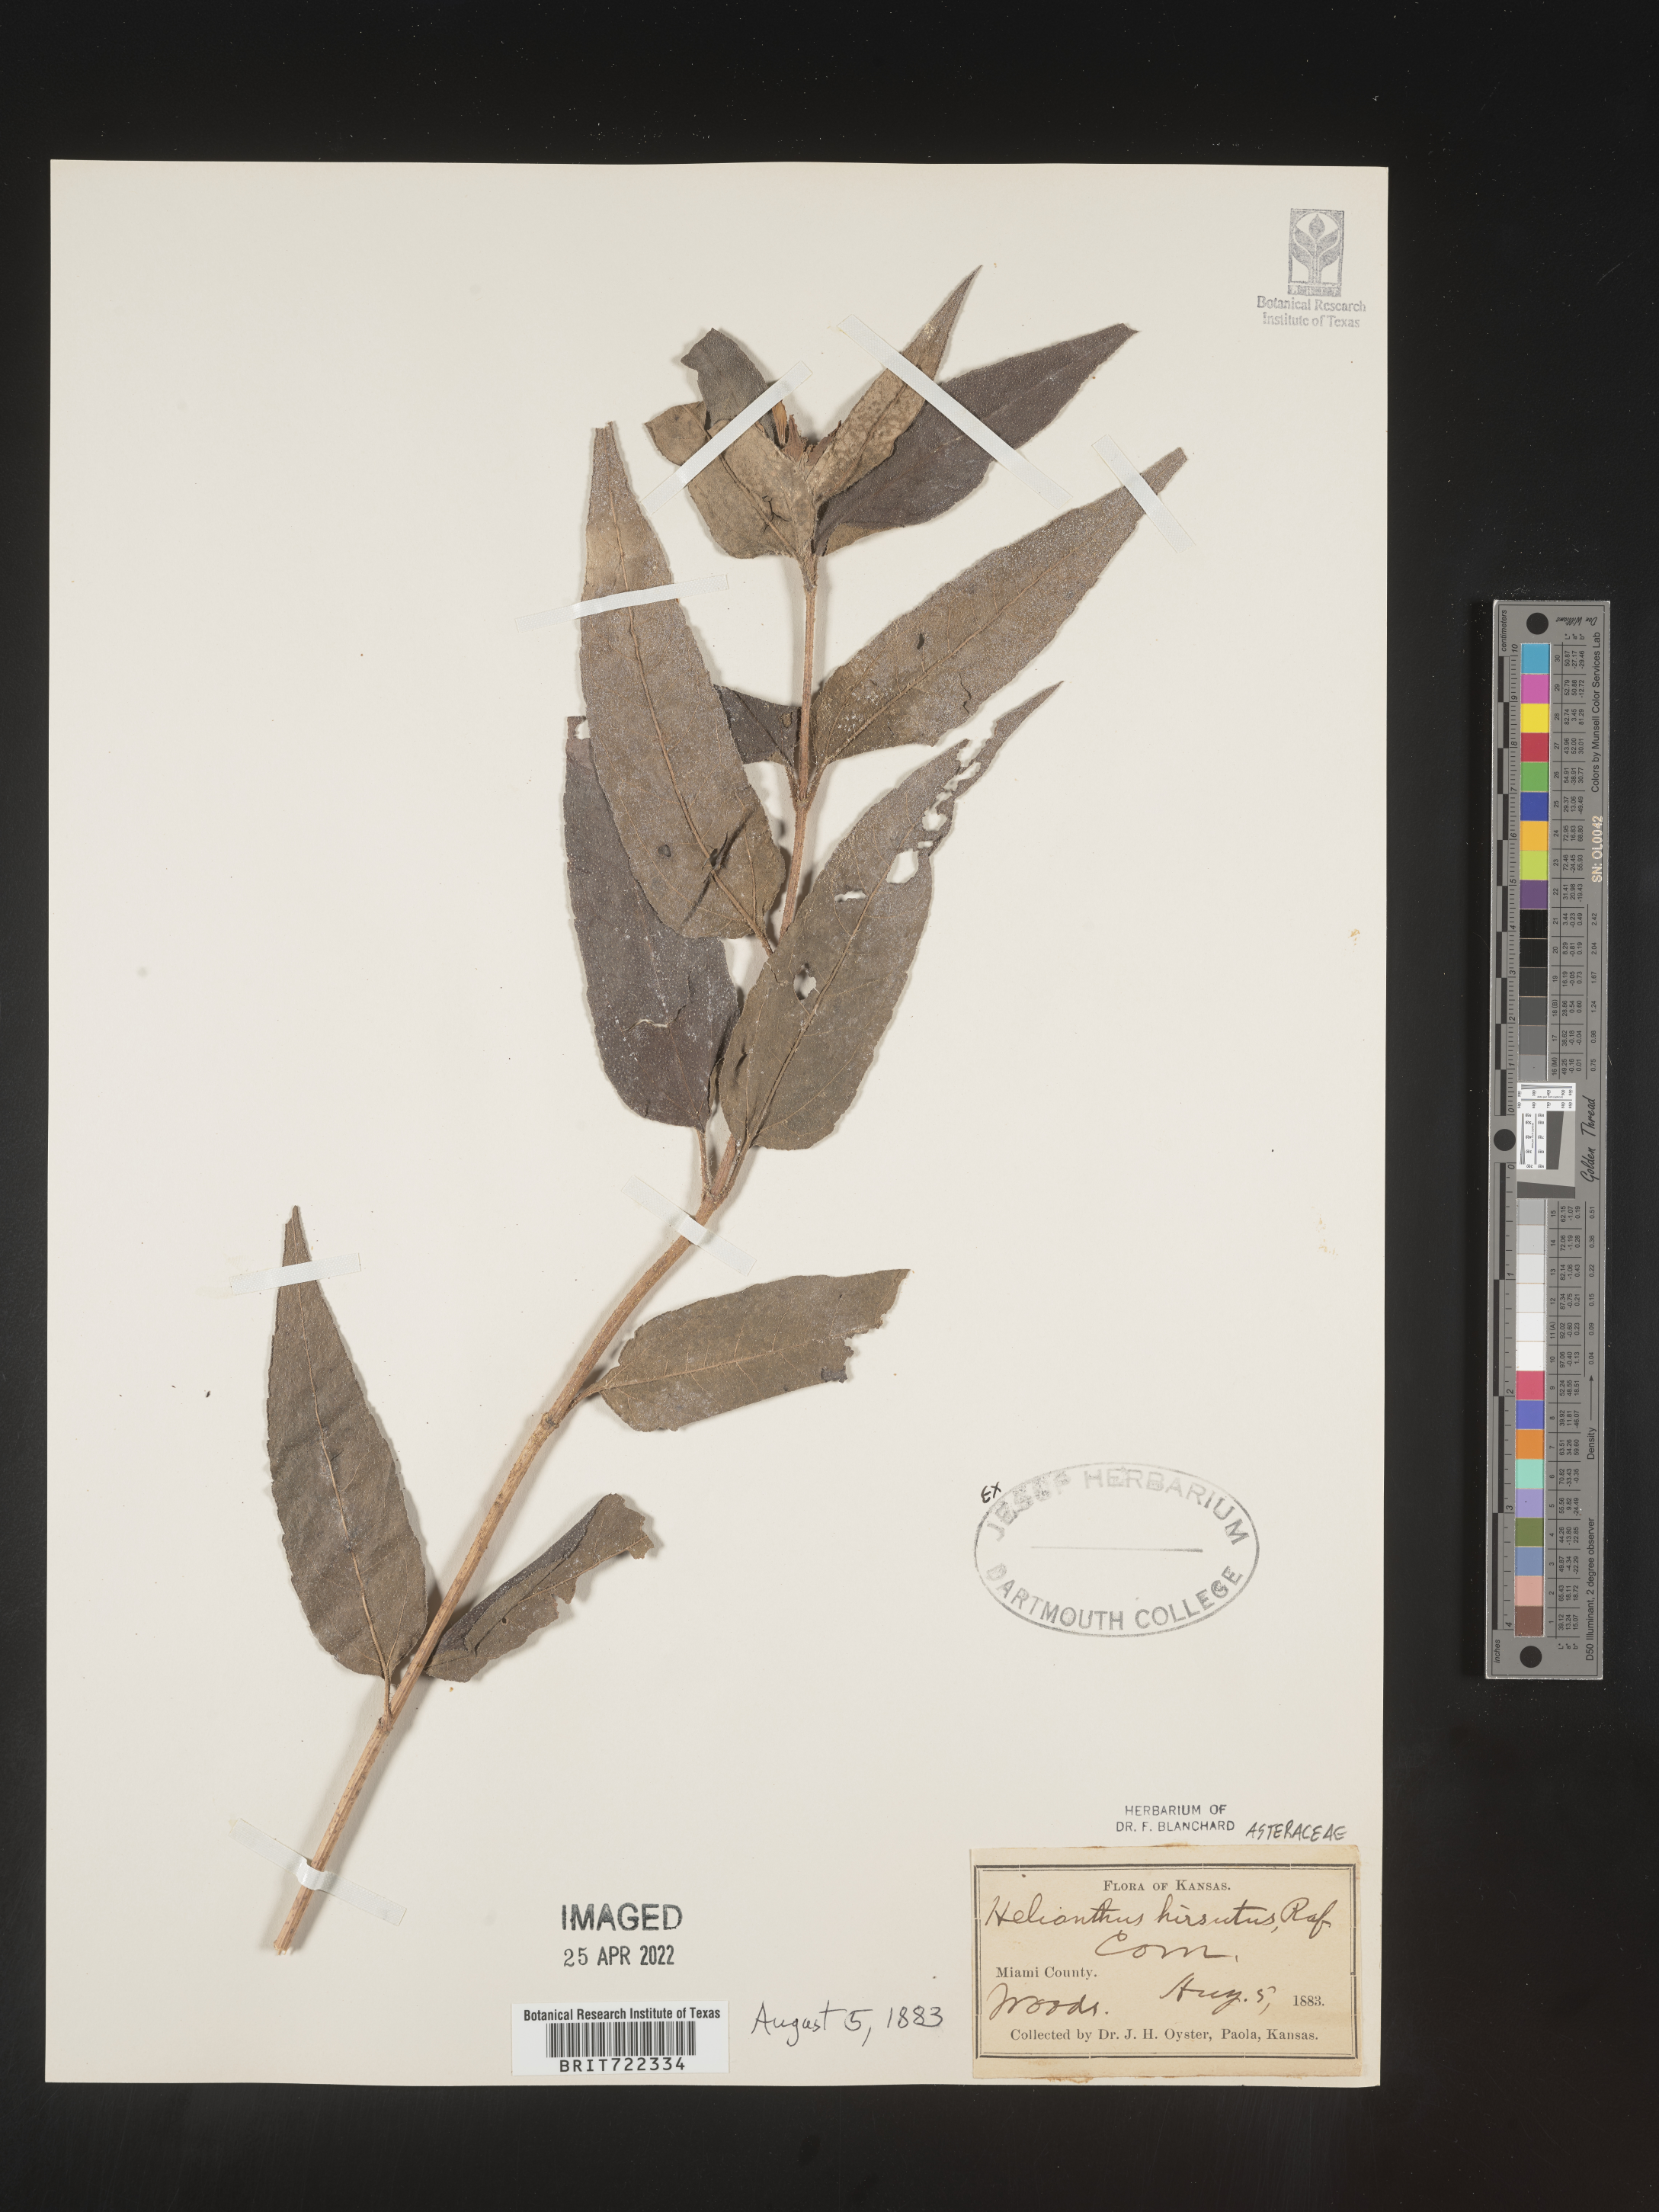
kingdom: Plantae
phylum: Tracheophyta
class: Magnoliopsida
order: Asterales
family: Asteraceae
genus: Helianthus
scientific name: Helianthus hirsutus
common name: Hairy sunflower
